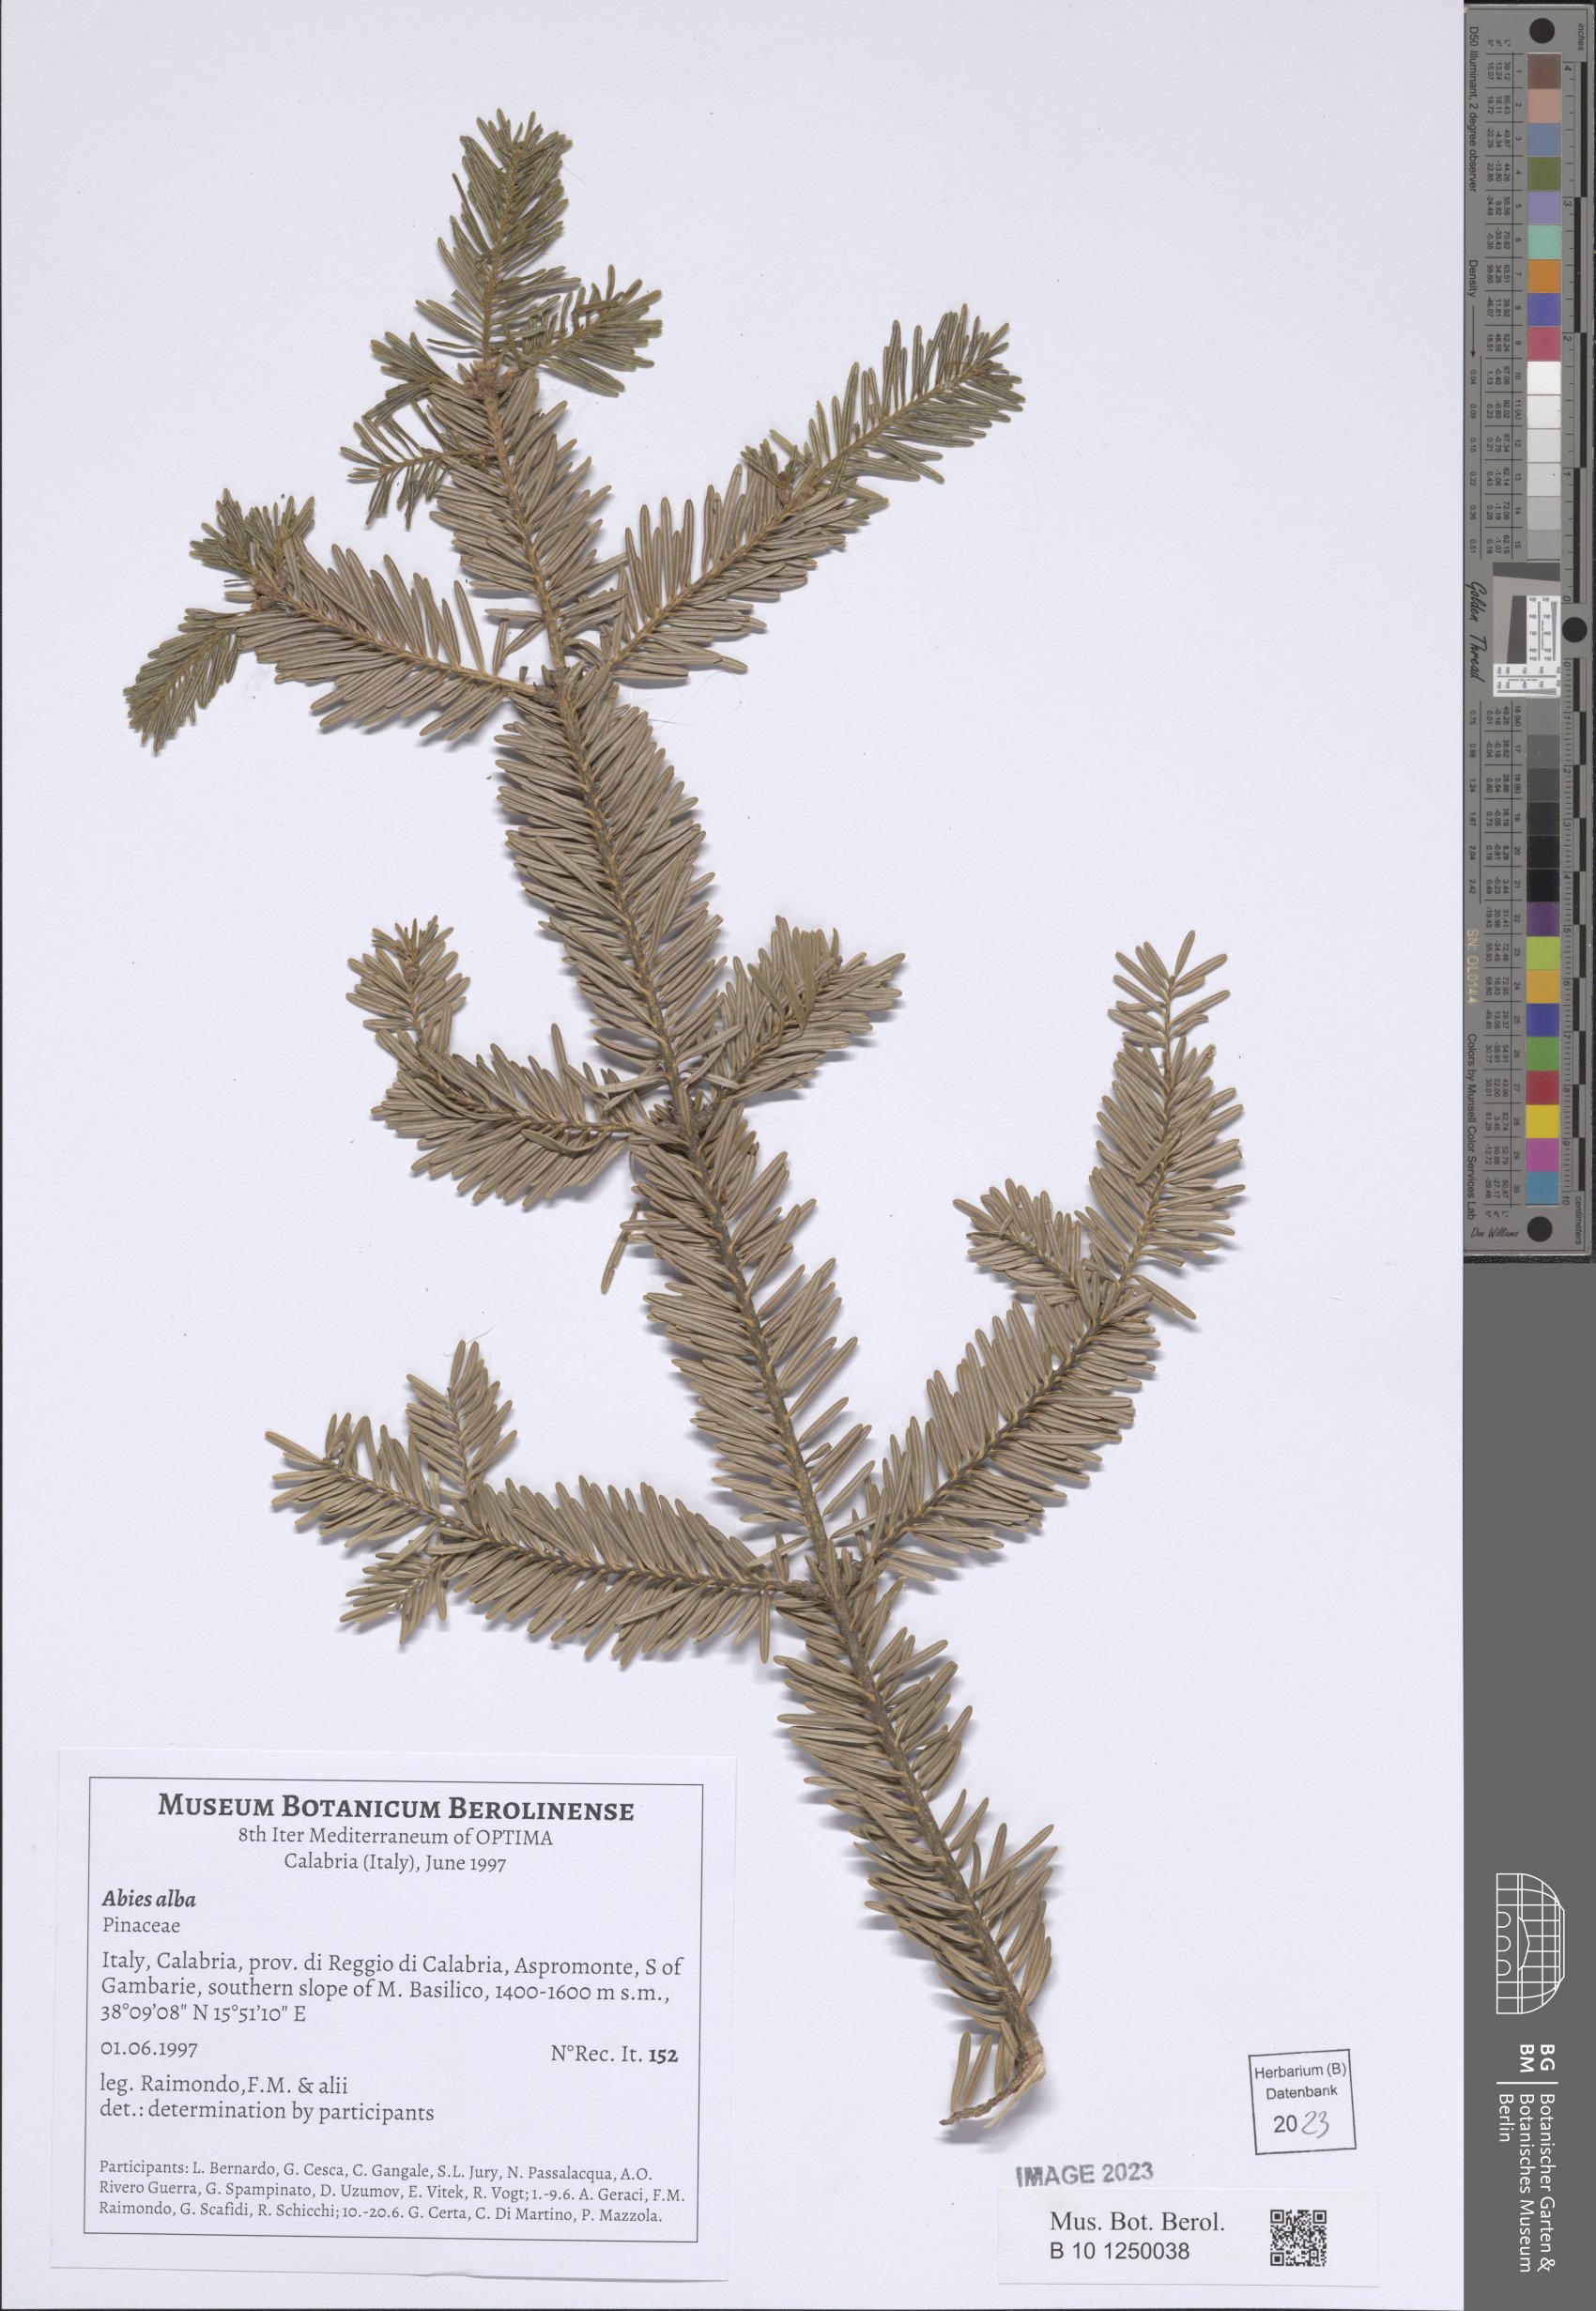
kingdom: Plantae
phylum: Tracheophyta
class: Pinopsida
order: Pinales
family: Pinaceae
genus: Abies
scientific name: Abies alba
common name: Silver fir
